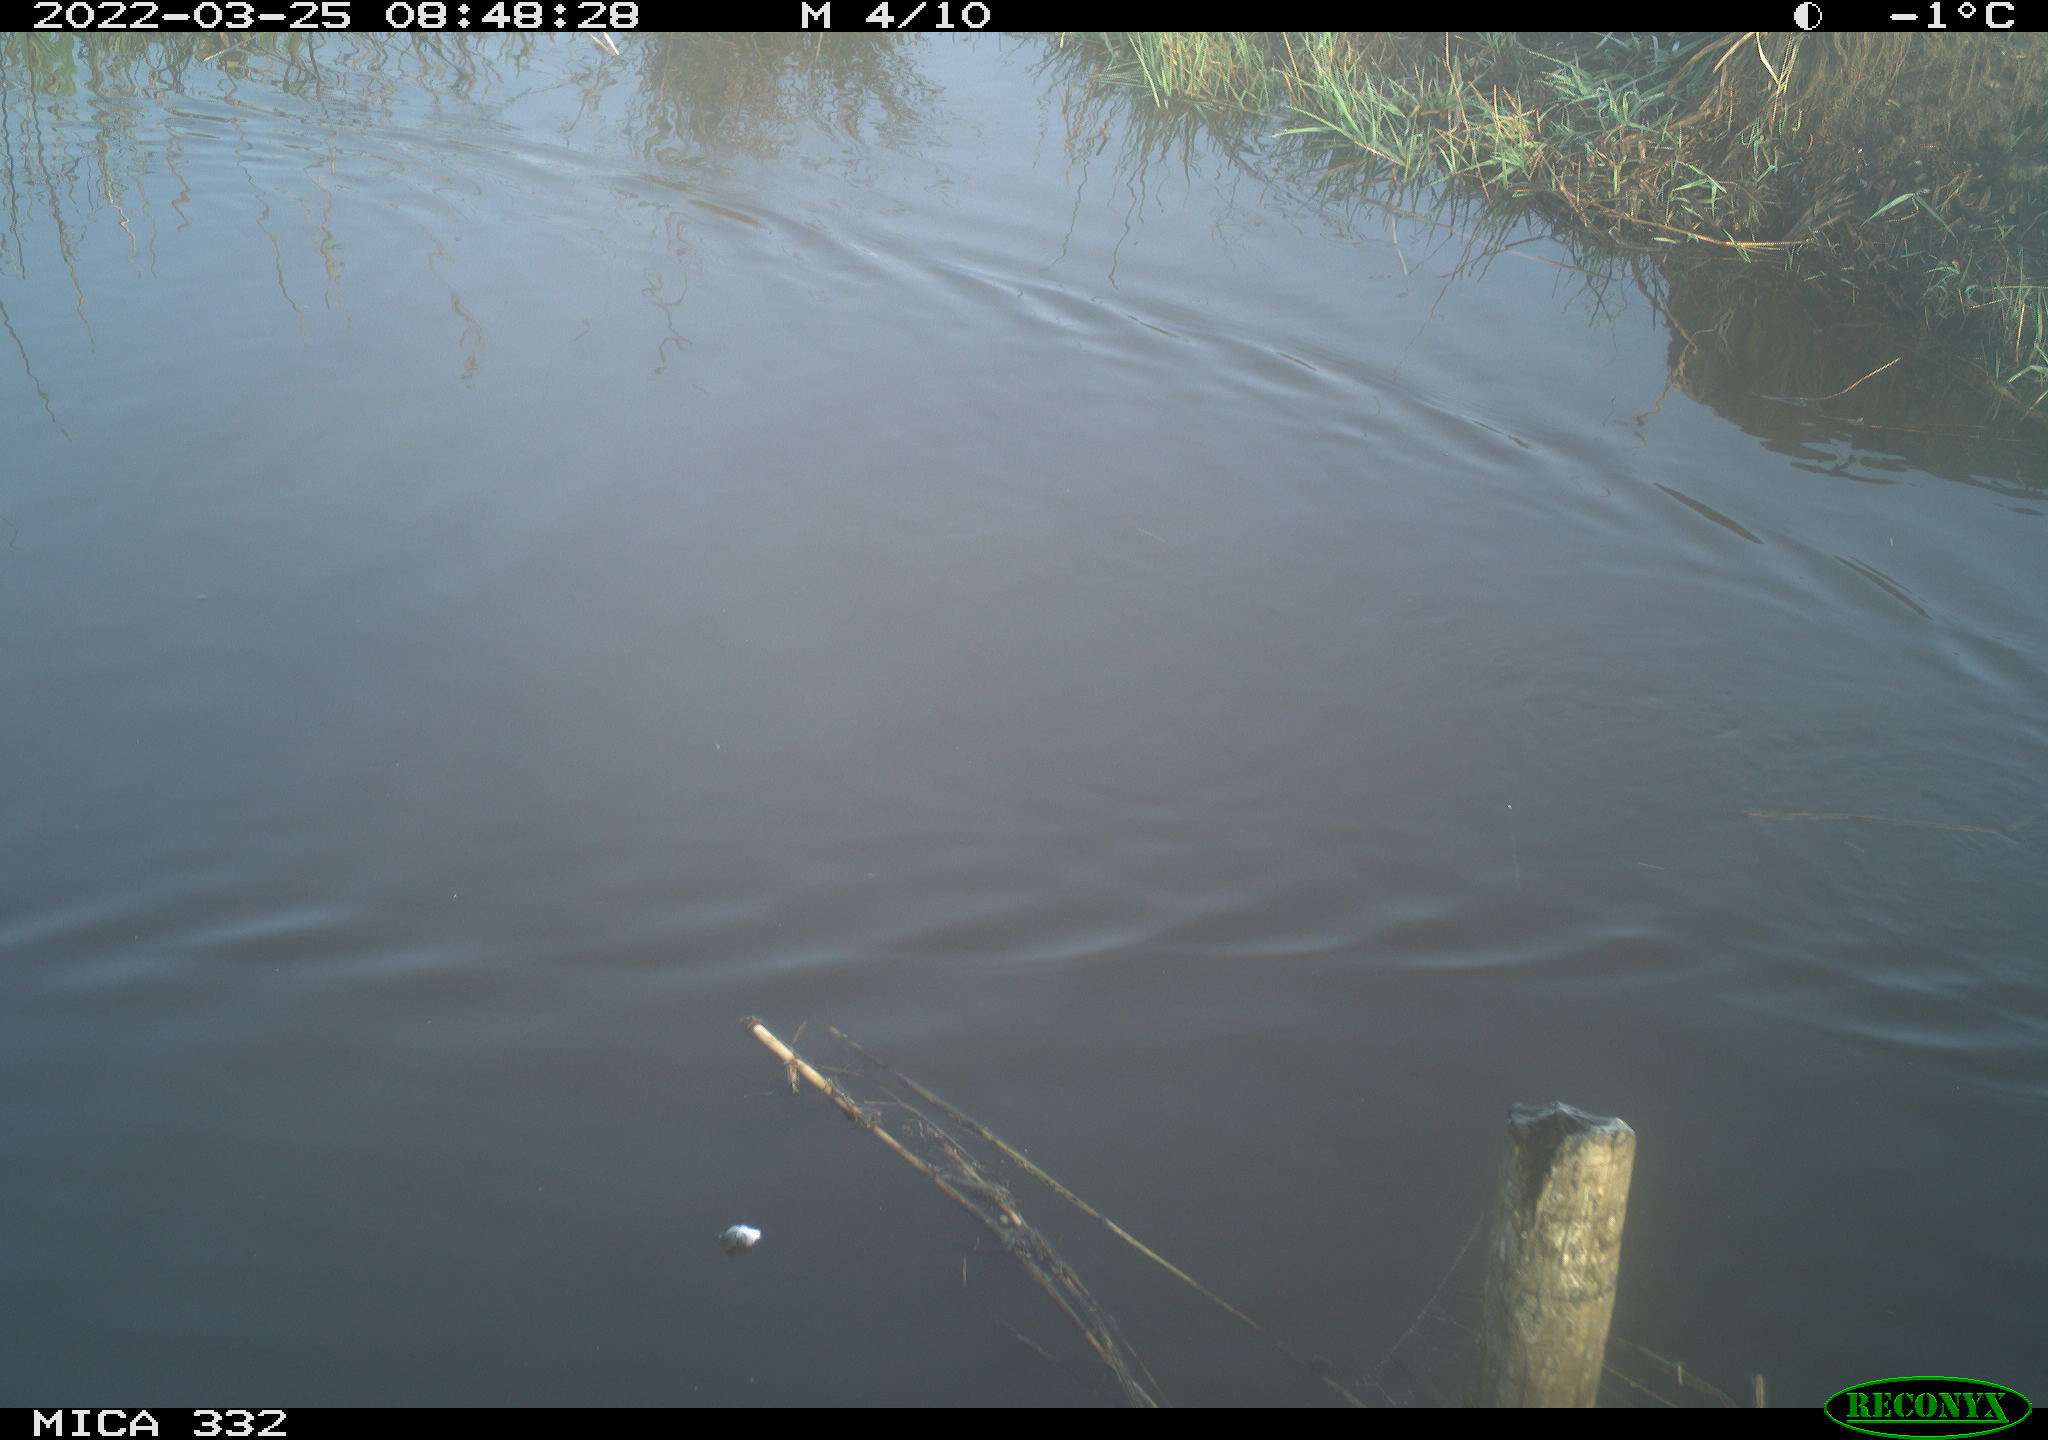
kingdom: Animalia
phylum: Chordata
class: Aves
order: Anseriformes
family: Anatidae
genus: Anas
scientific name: Anas platyrhynchos
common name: Mallard
